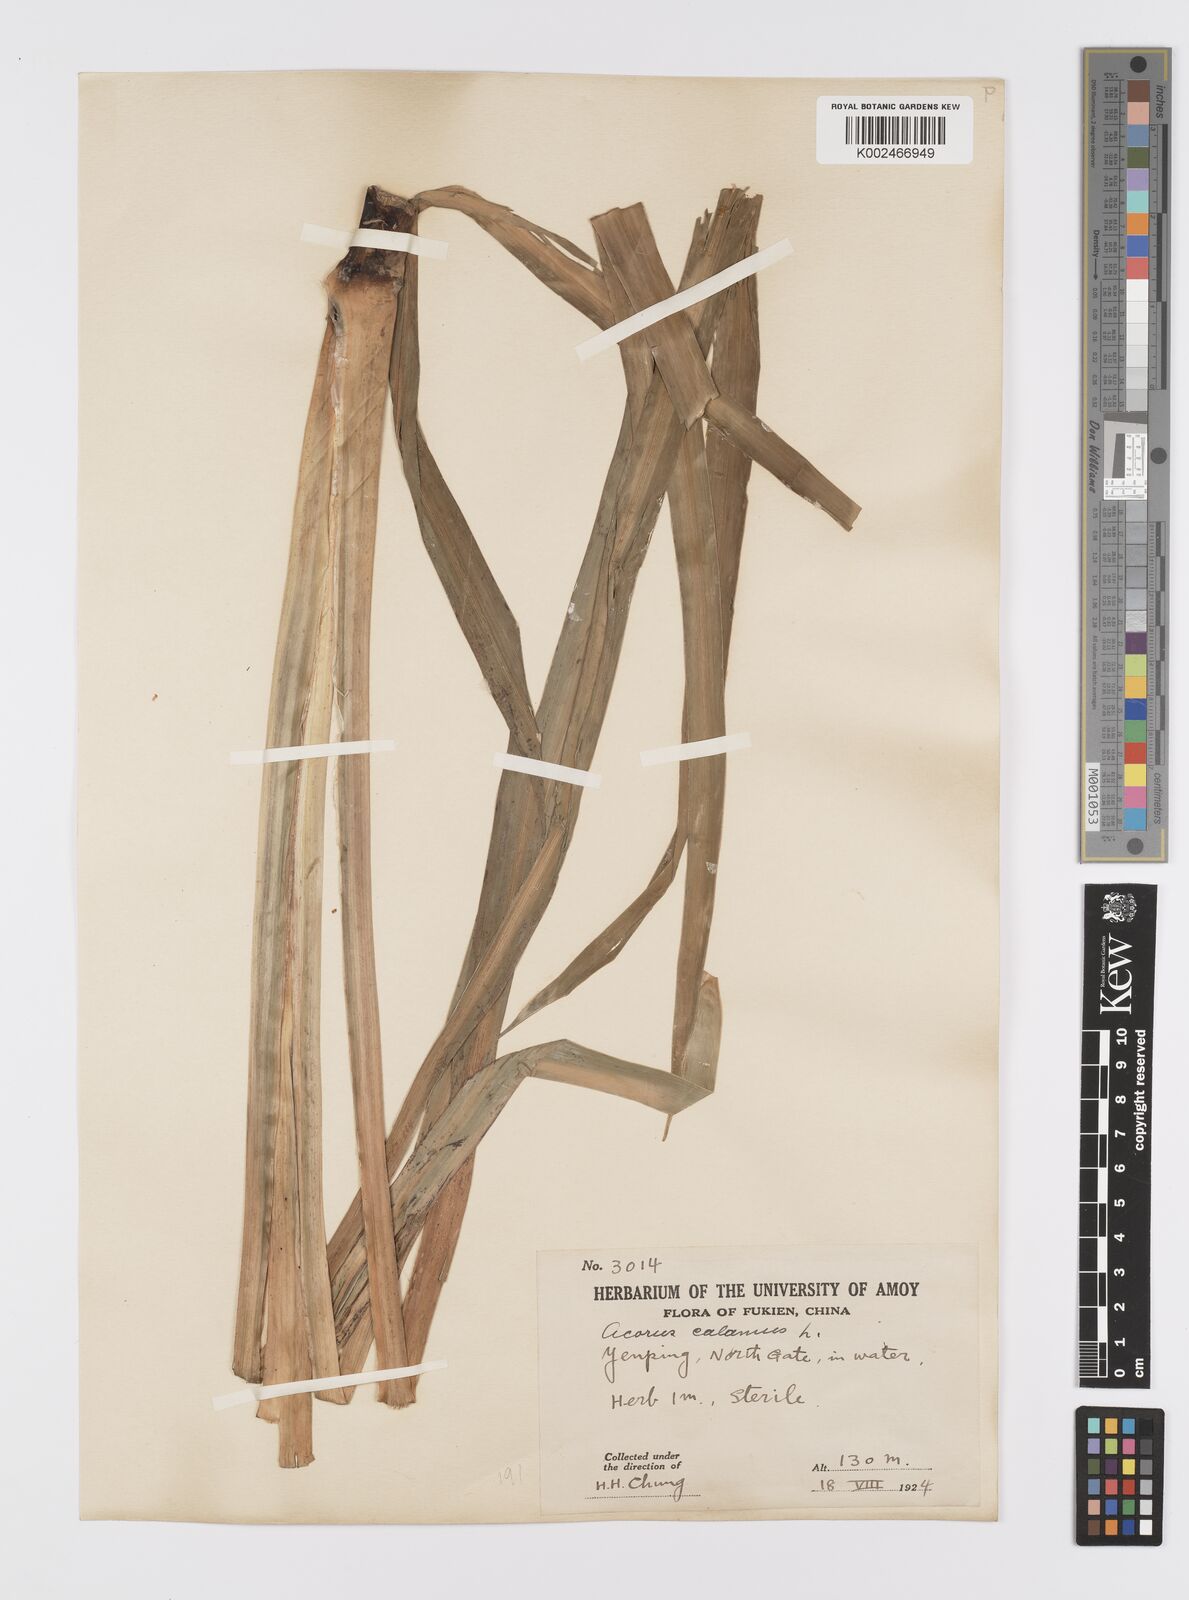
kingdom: Plantae
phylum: Tracheophyta
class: Liliopsida
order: Acorales
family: Acoraceae
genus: Acorus
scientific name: Acorus calamus
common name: Sweet-flag
